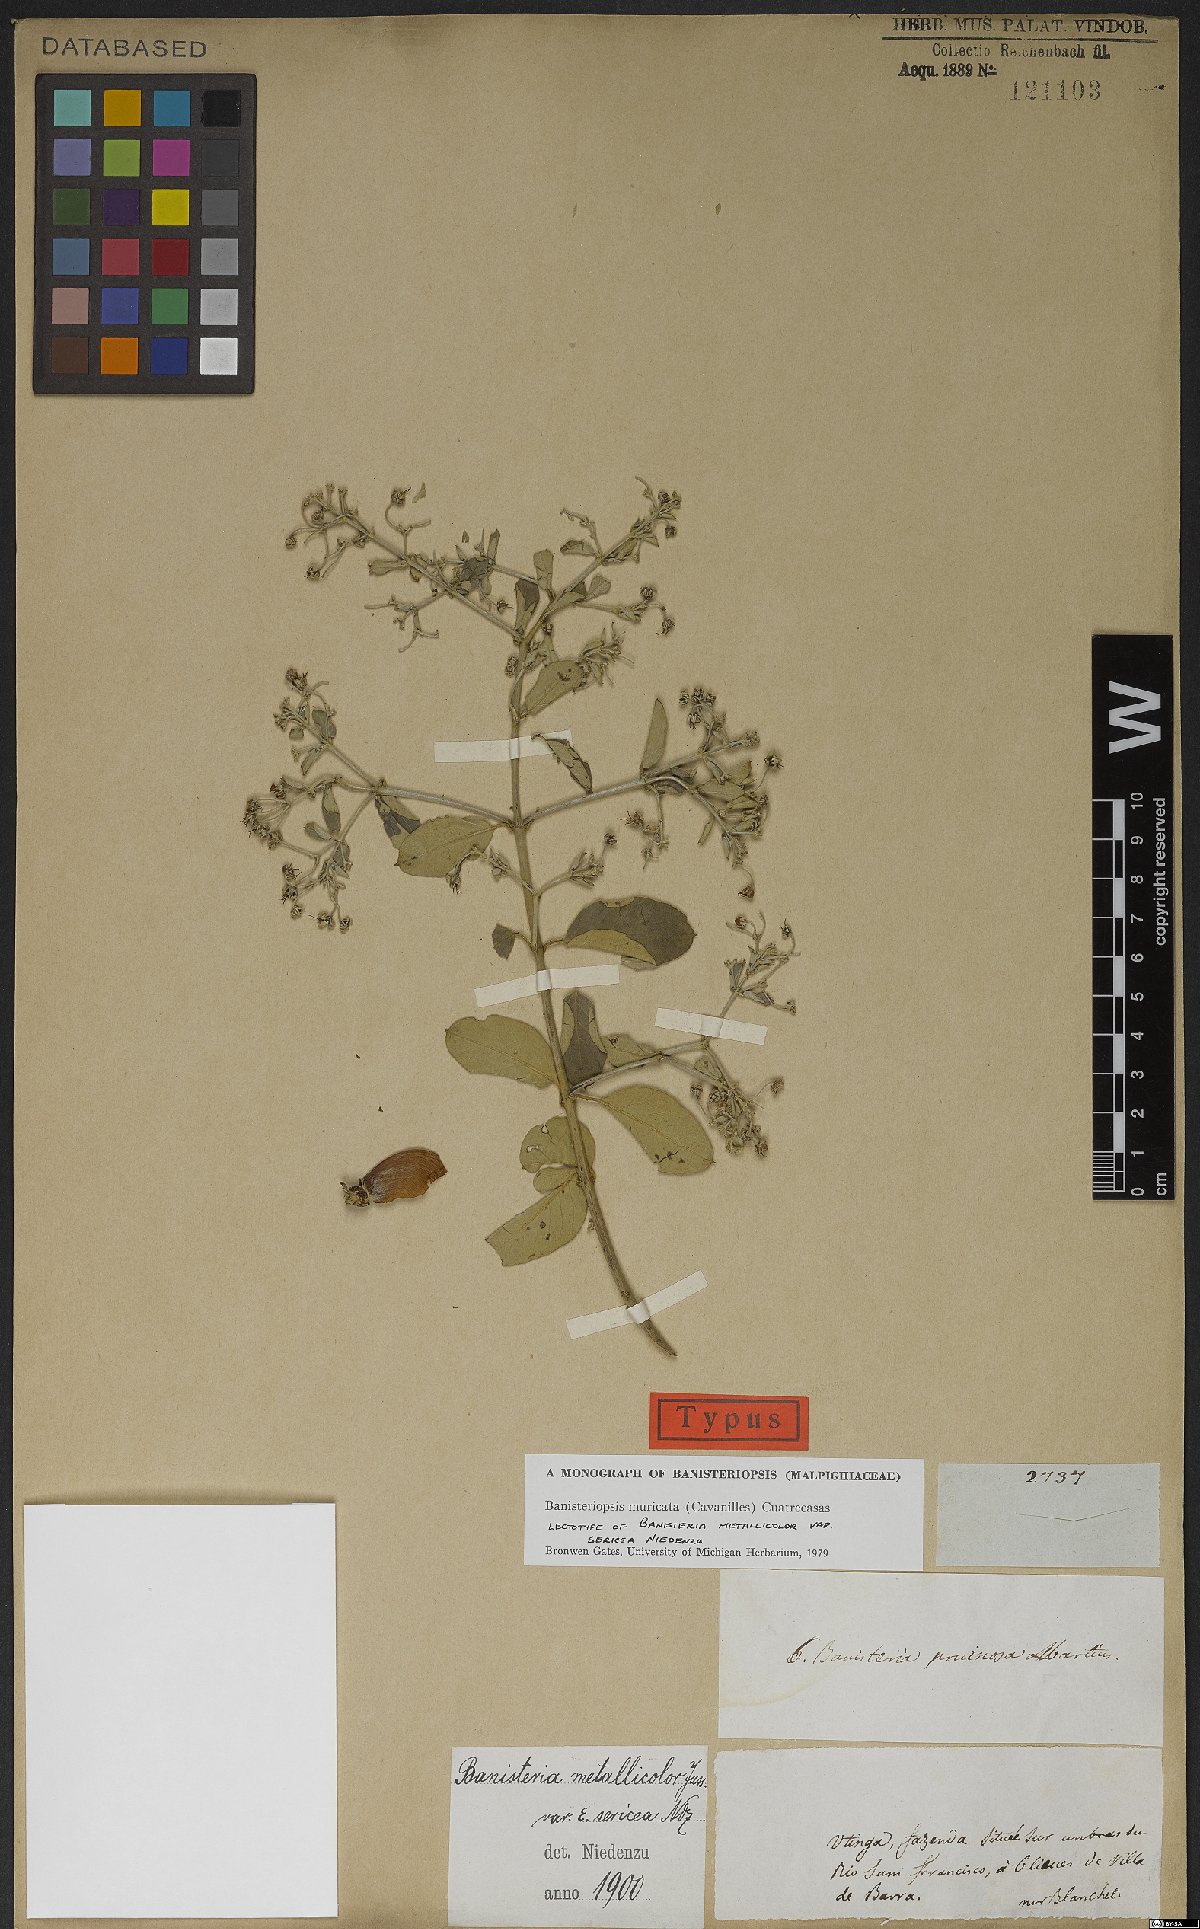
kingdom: Plantae
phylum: Tracheophyta
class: Magnoliopsida
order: Malpighiales
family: Malpighiaceae
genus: Banisteriopsis
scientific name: Banisteriopsis muricata
